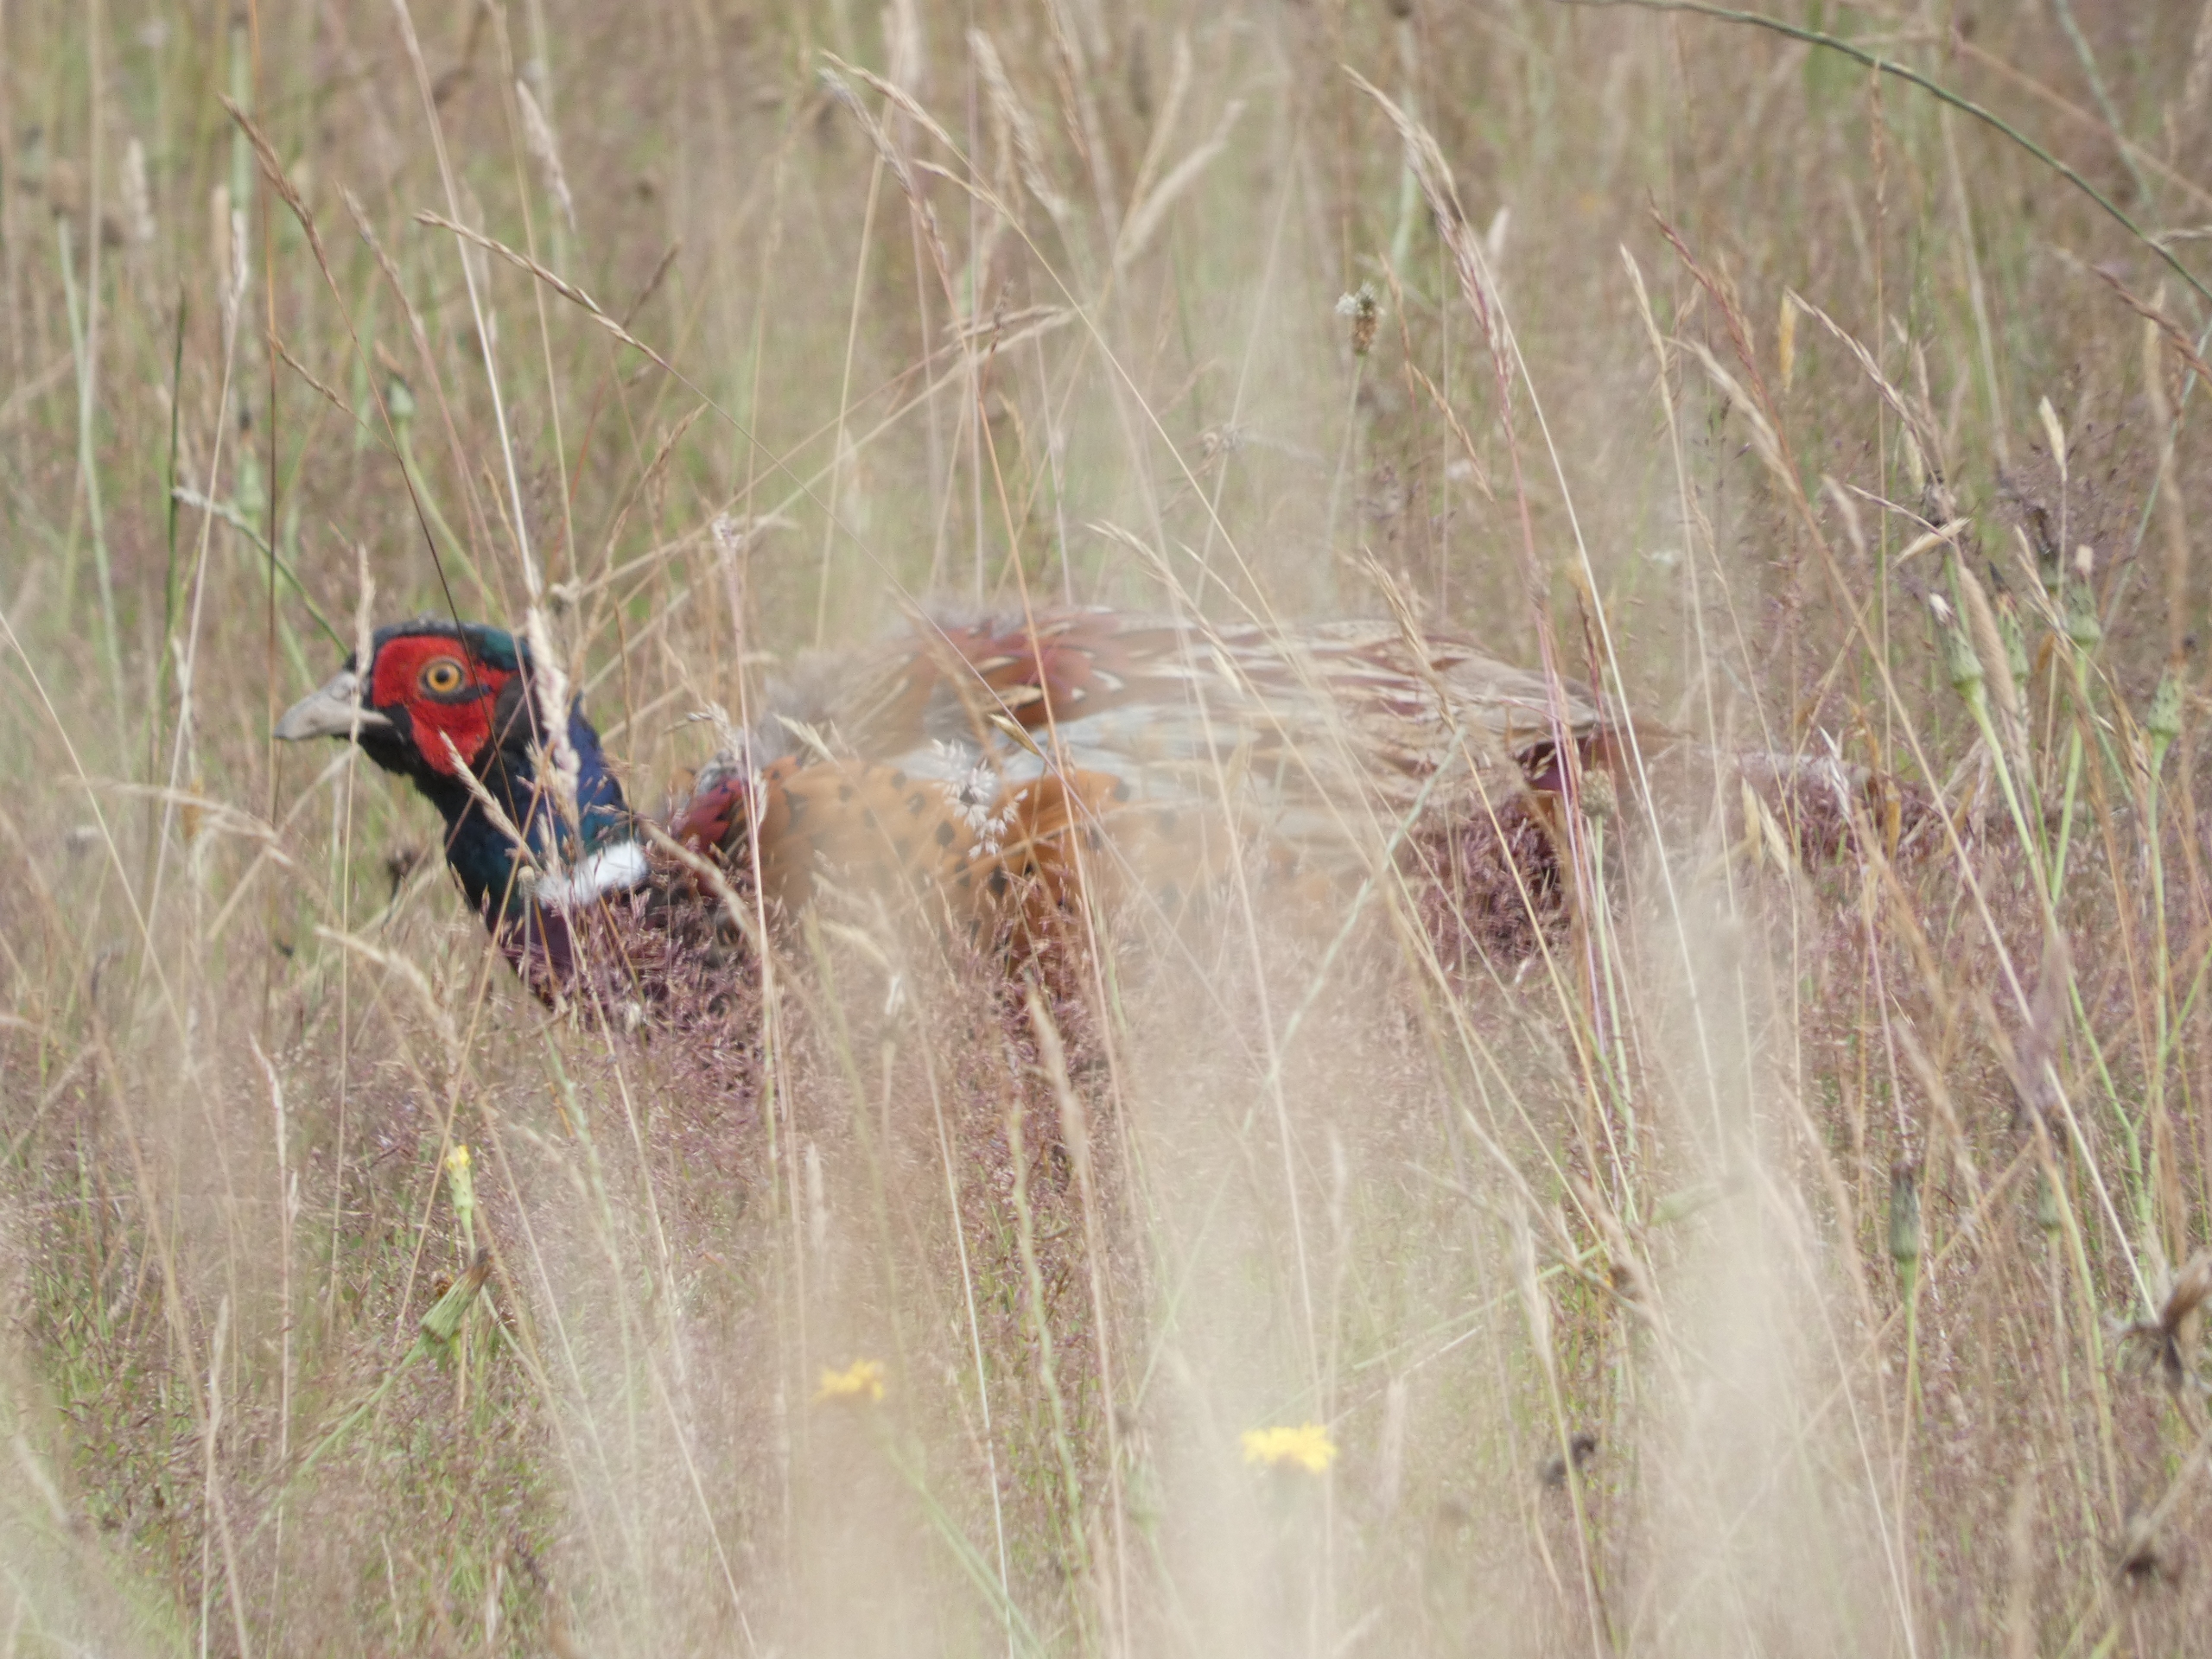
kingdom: Animalia
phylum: Chordata
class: Aves
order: Galliformes
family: Phasianidae
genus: Phasianus
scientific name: Phasianus colchicus
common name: Fasan
